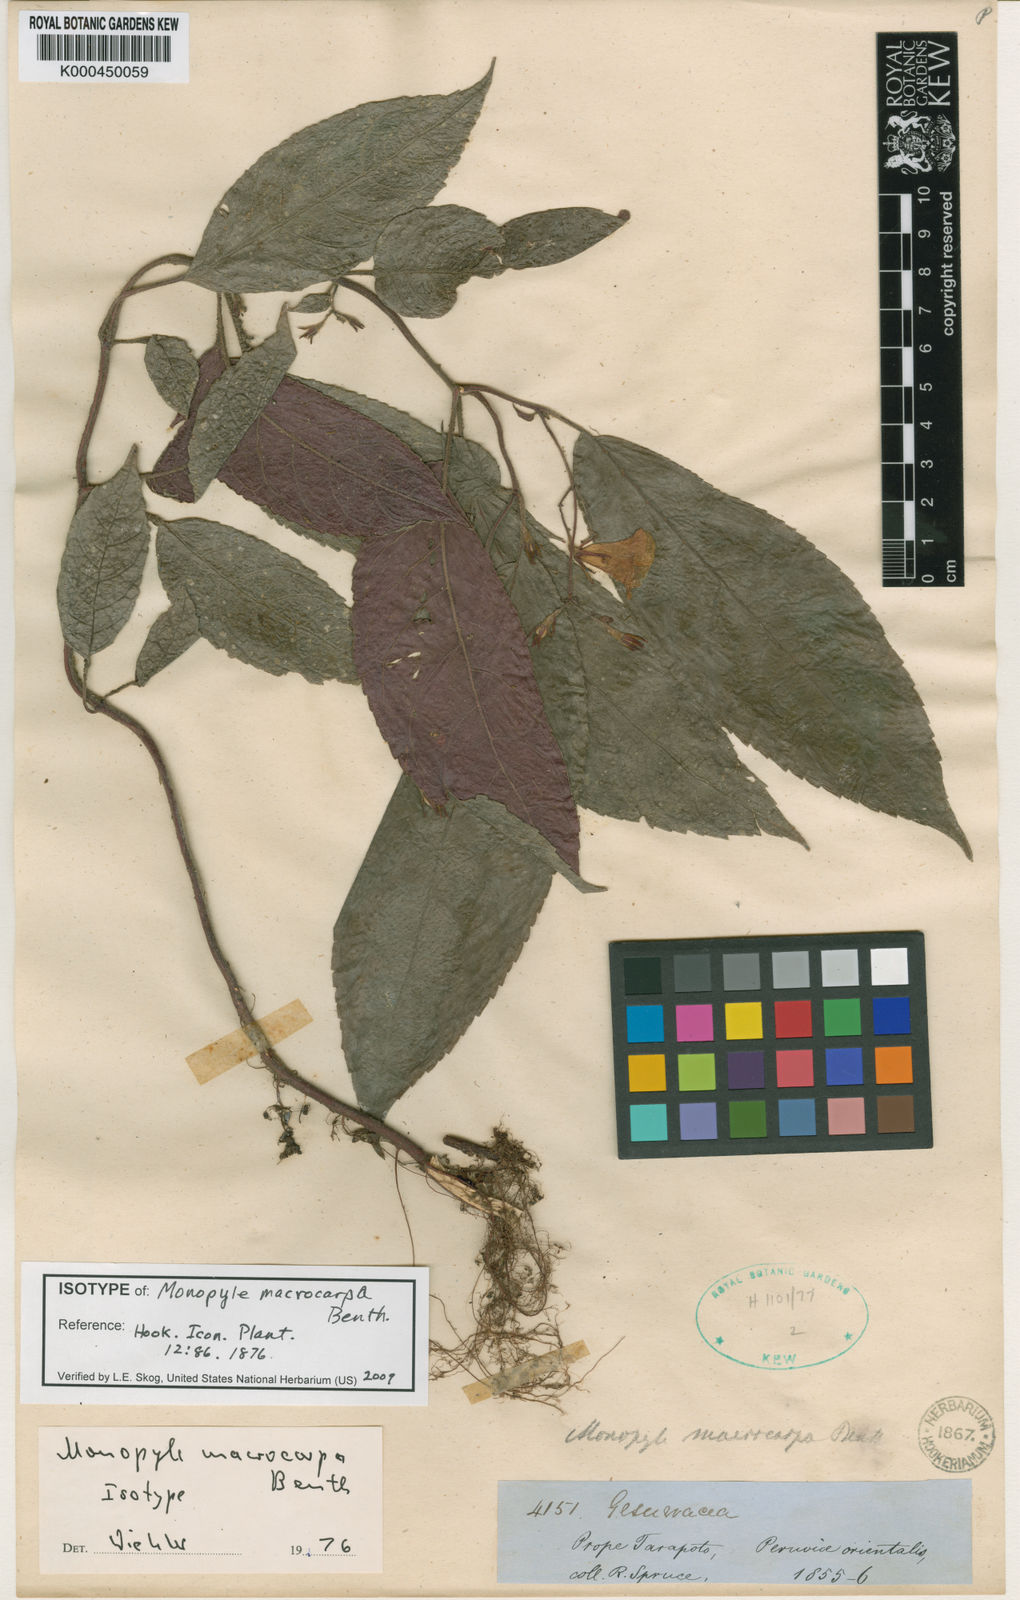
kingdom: Plantae
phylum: Tracheophyta
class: Magnoliopsida
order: Lamiales
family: Gesneriaceae
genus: Monopyle
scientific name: Monopyle macrocarpa
